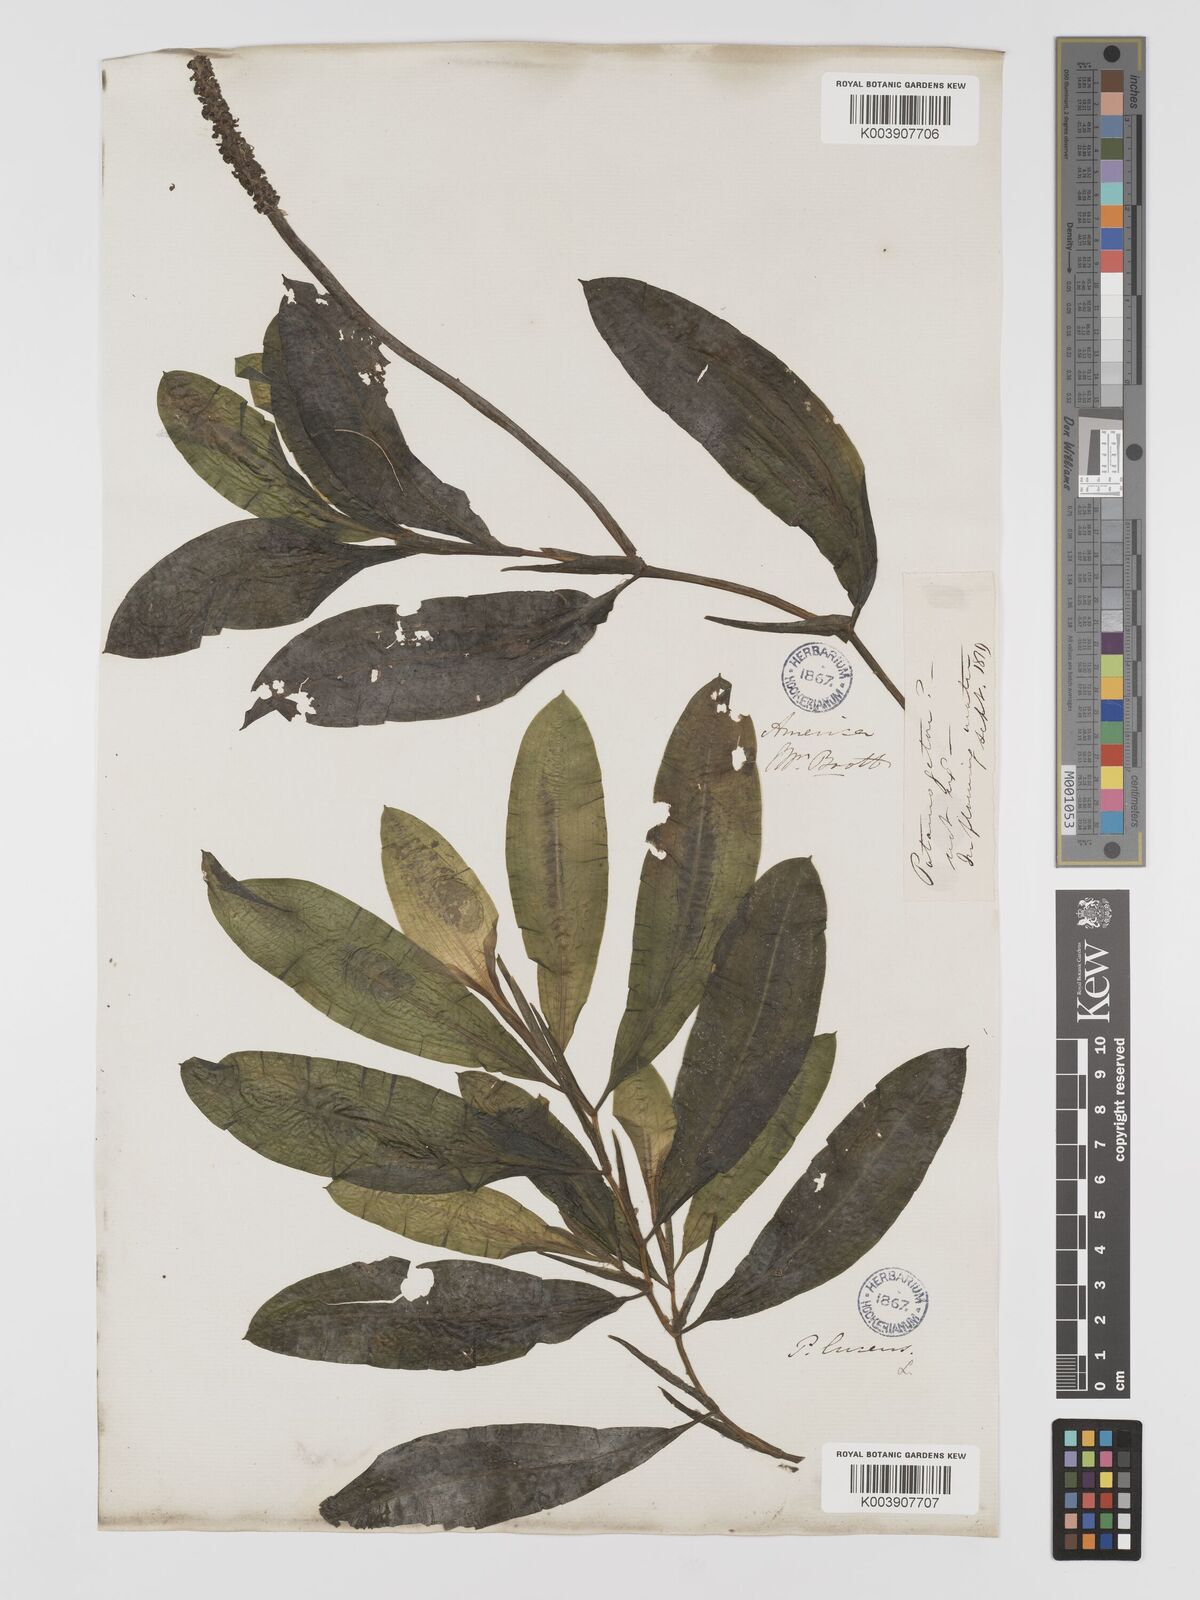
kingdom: Plantae
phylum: Tracheophyta
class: Liliopsida
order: Alismatales
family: Potamogetonaceae
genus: Potamogeton
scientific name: Potamogeton illinoensis
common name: Illinois pondweed
